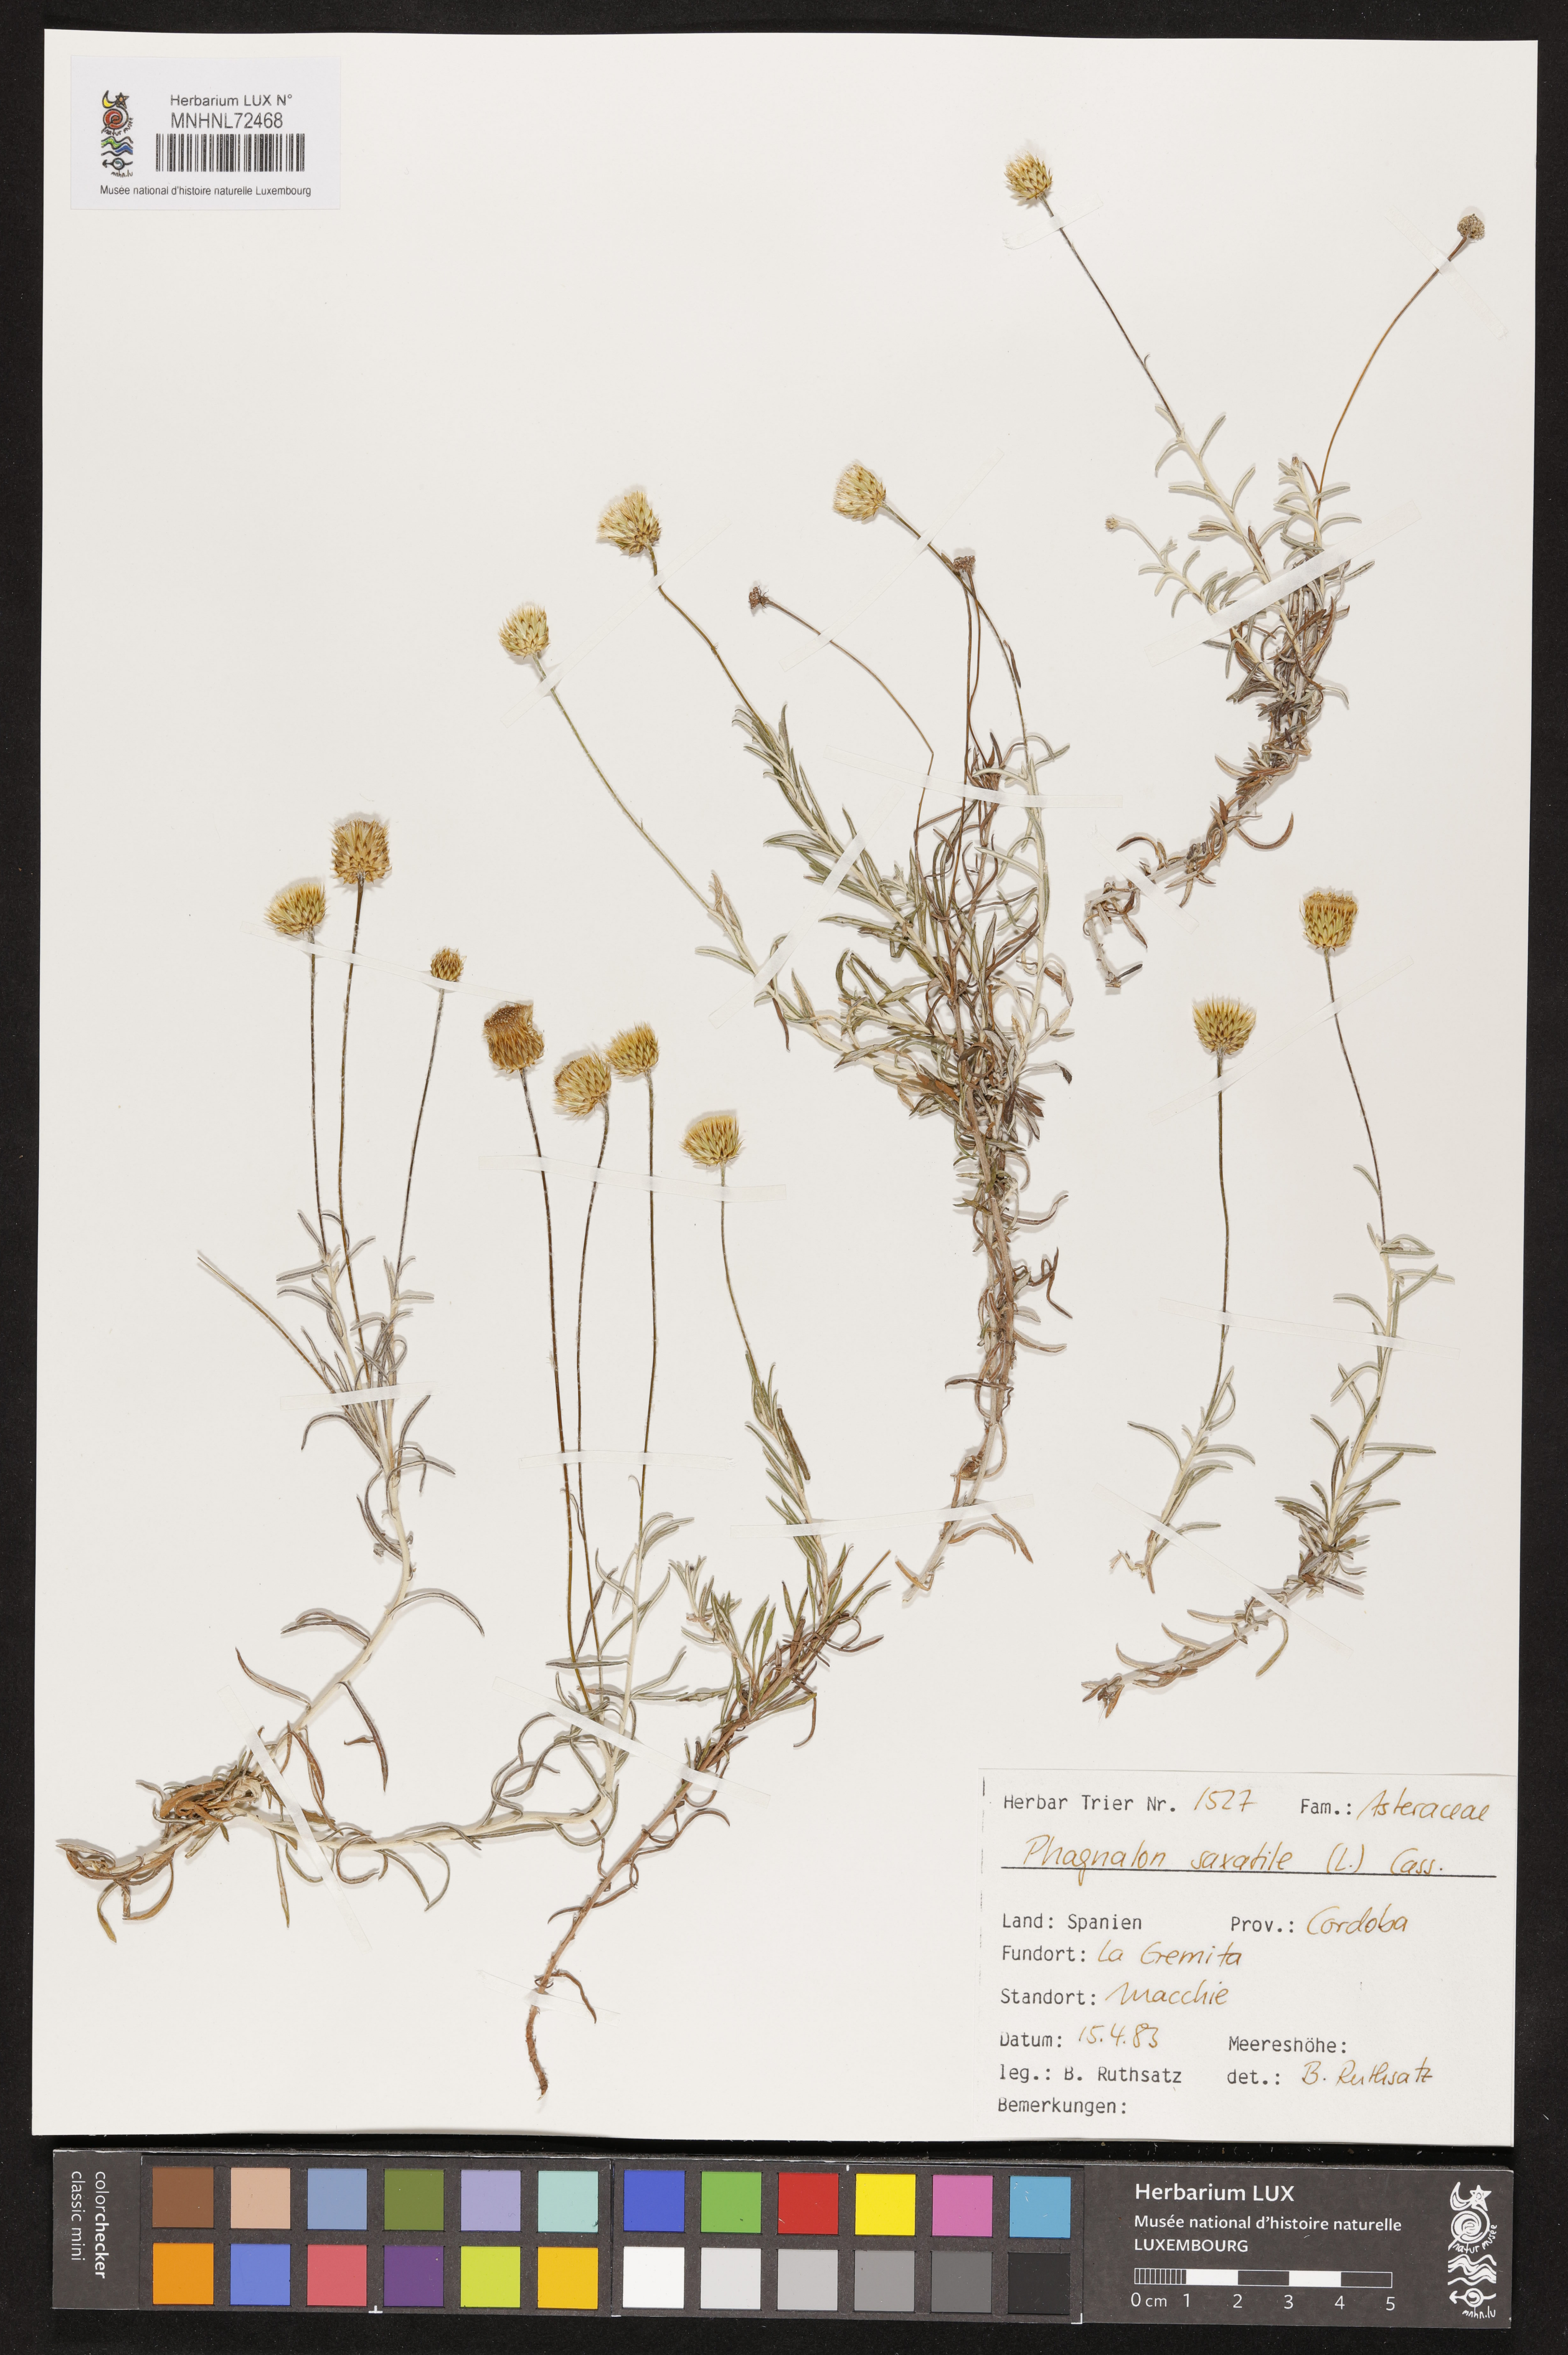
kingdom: Plantae
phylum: Tracheophyta
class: Magnoliopsida
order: Asterales
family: Asteraceae
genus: Phagnalon
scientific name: Phagnalon saxatile
